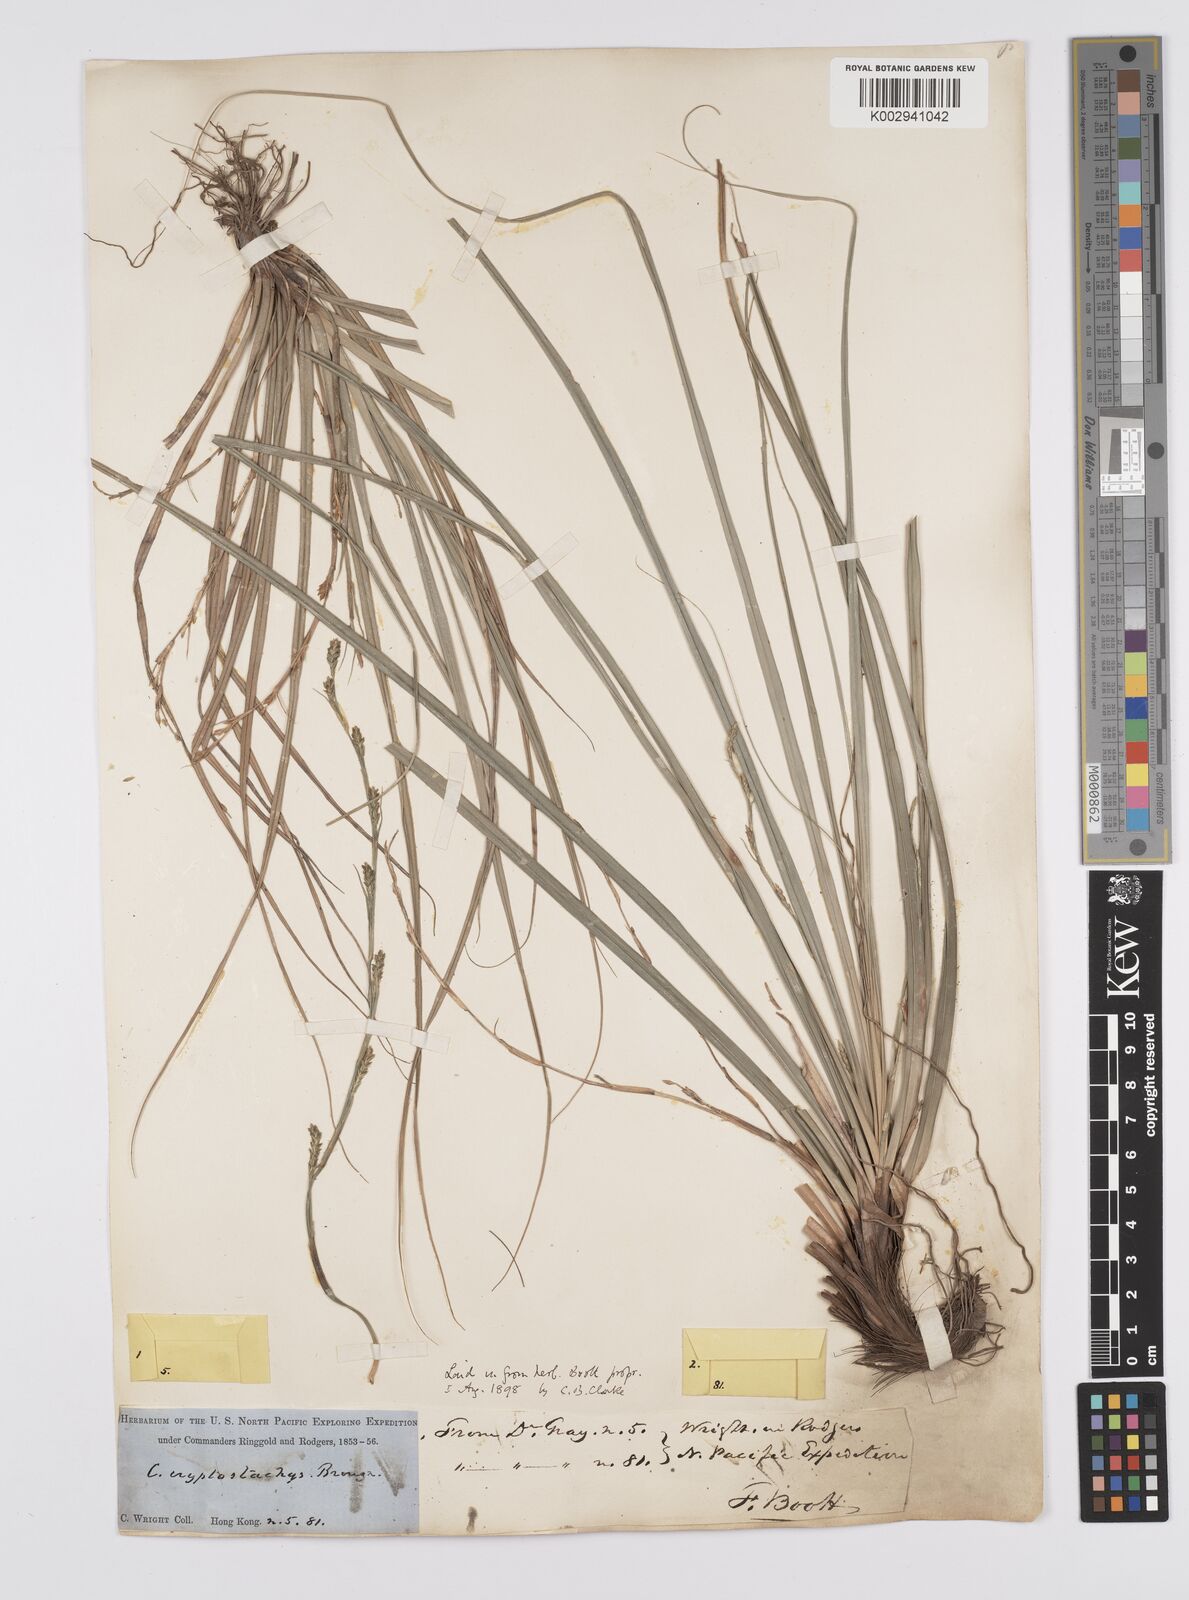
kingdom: Plantae
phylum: Tracheophyta
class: Liliopsida
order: Poales
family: Cyperaceae
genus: Carex
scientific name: Carex cryptostachys
